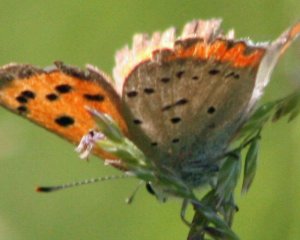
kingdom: Animalia
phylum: Arthropoda
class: Insecta
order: Lepidoptera
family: Sesiidae
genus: Sesia
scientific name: Sesia Lycaena hyllus
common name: Bronze Copper
